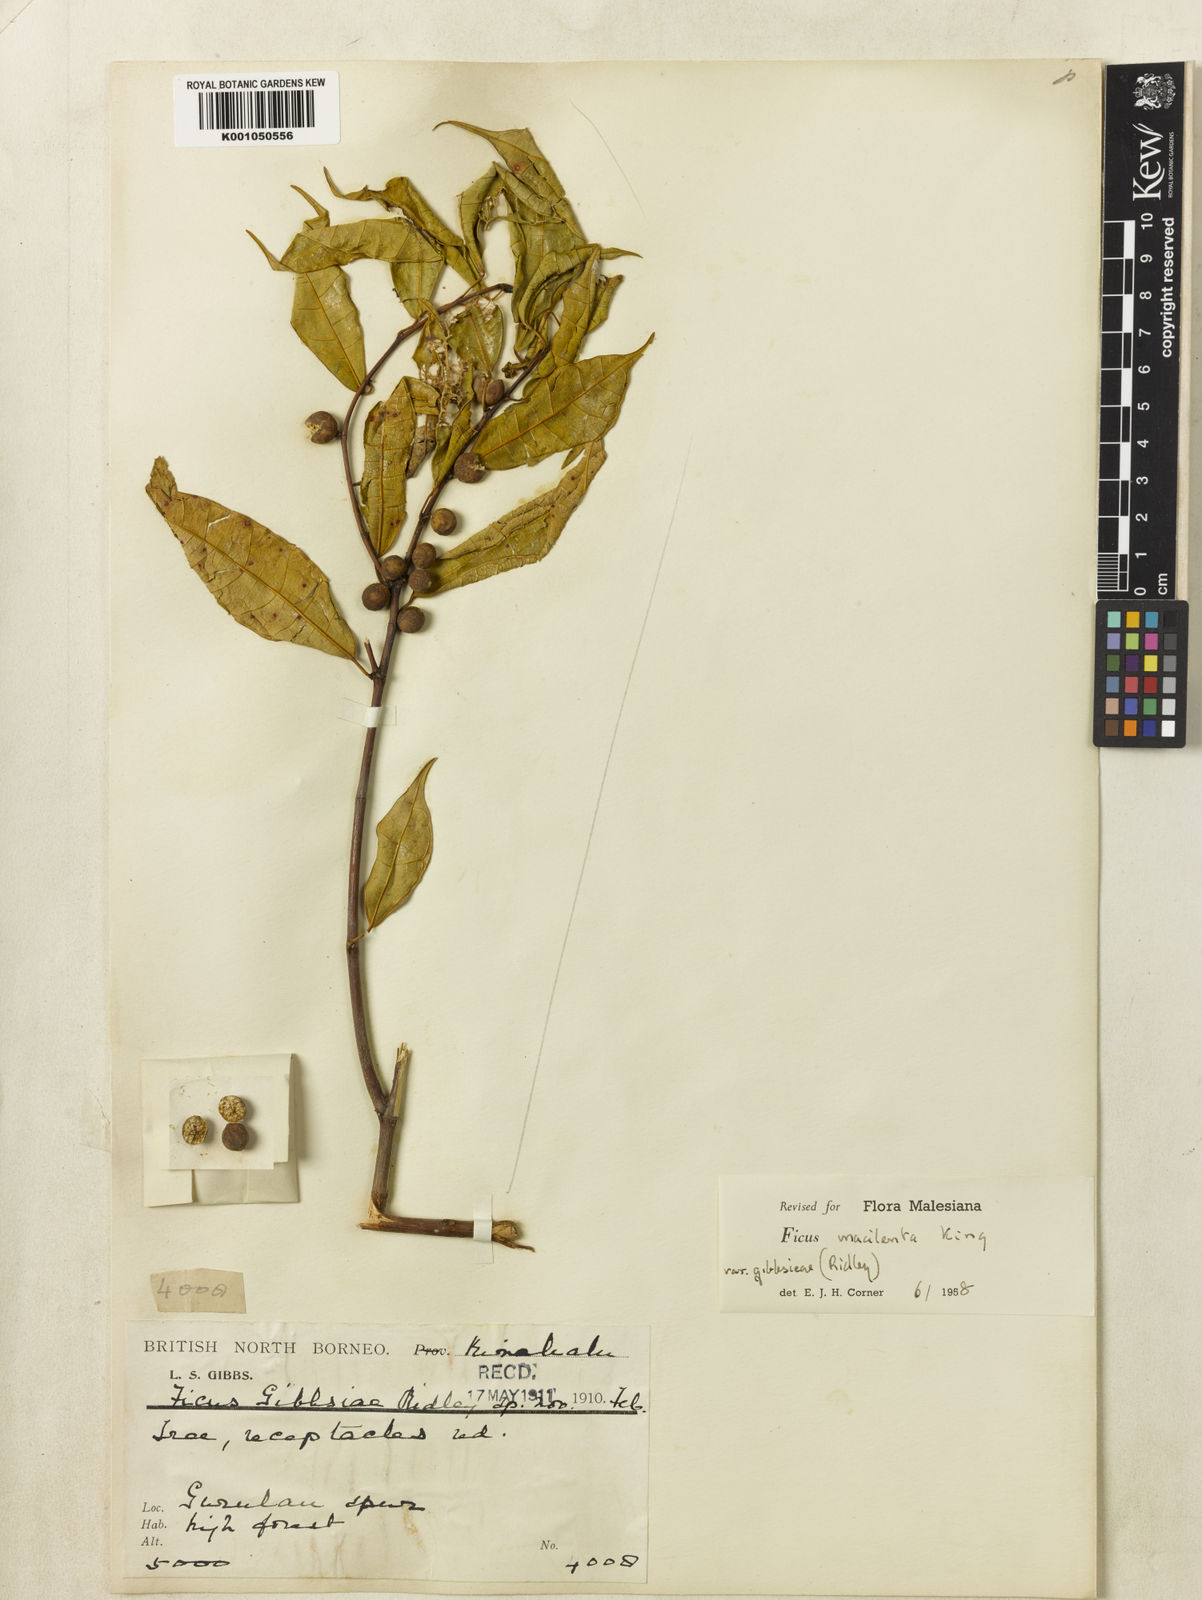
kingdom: Plantae
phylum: Tracheophyta
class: Magnoliopsida
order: Rosales
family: Moraceae
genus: Ficus
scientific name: Ficus macilenta
